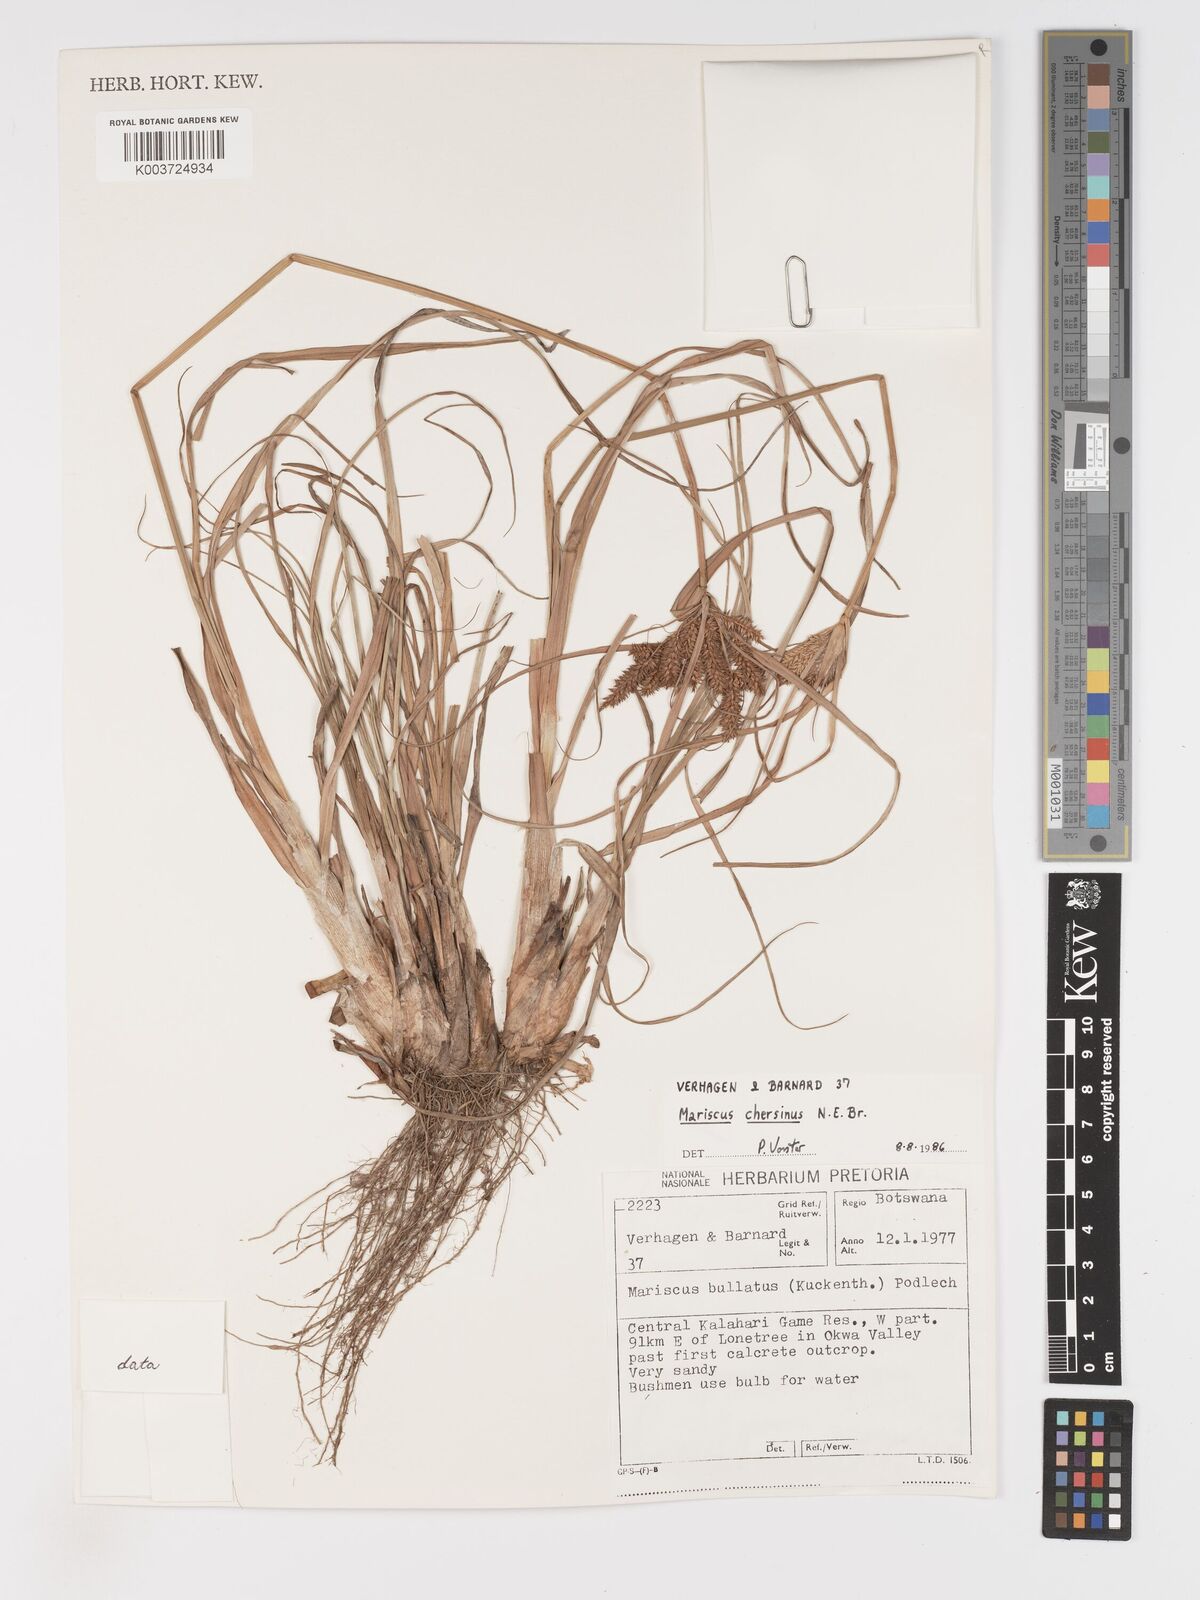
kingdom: Plantae
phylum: Tracheophyta
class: Liliopsida
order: Poales
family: Cyperaceae
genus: Cyperus
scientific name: Cyperus chersinus
